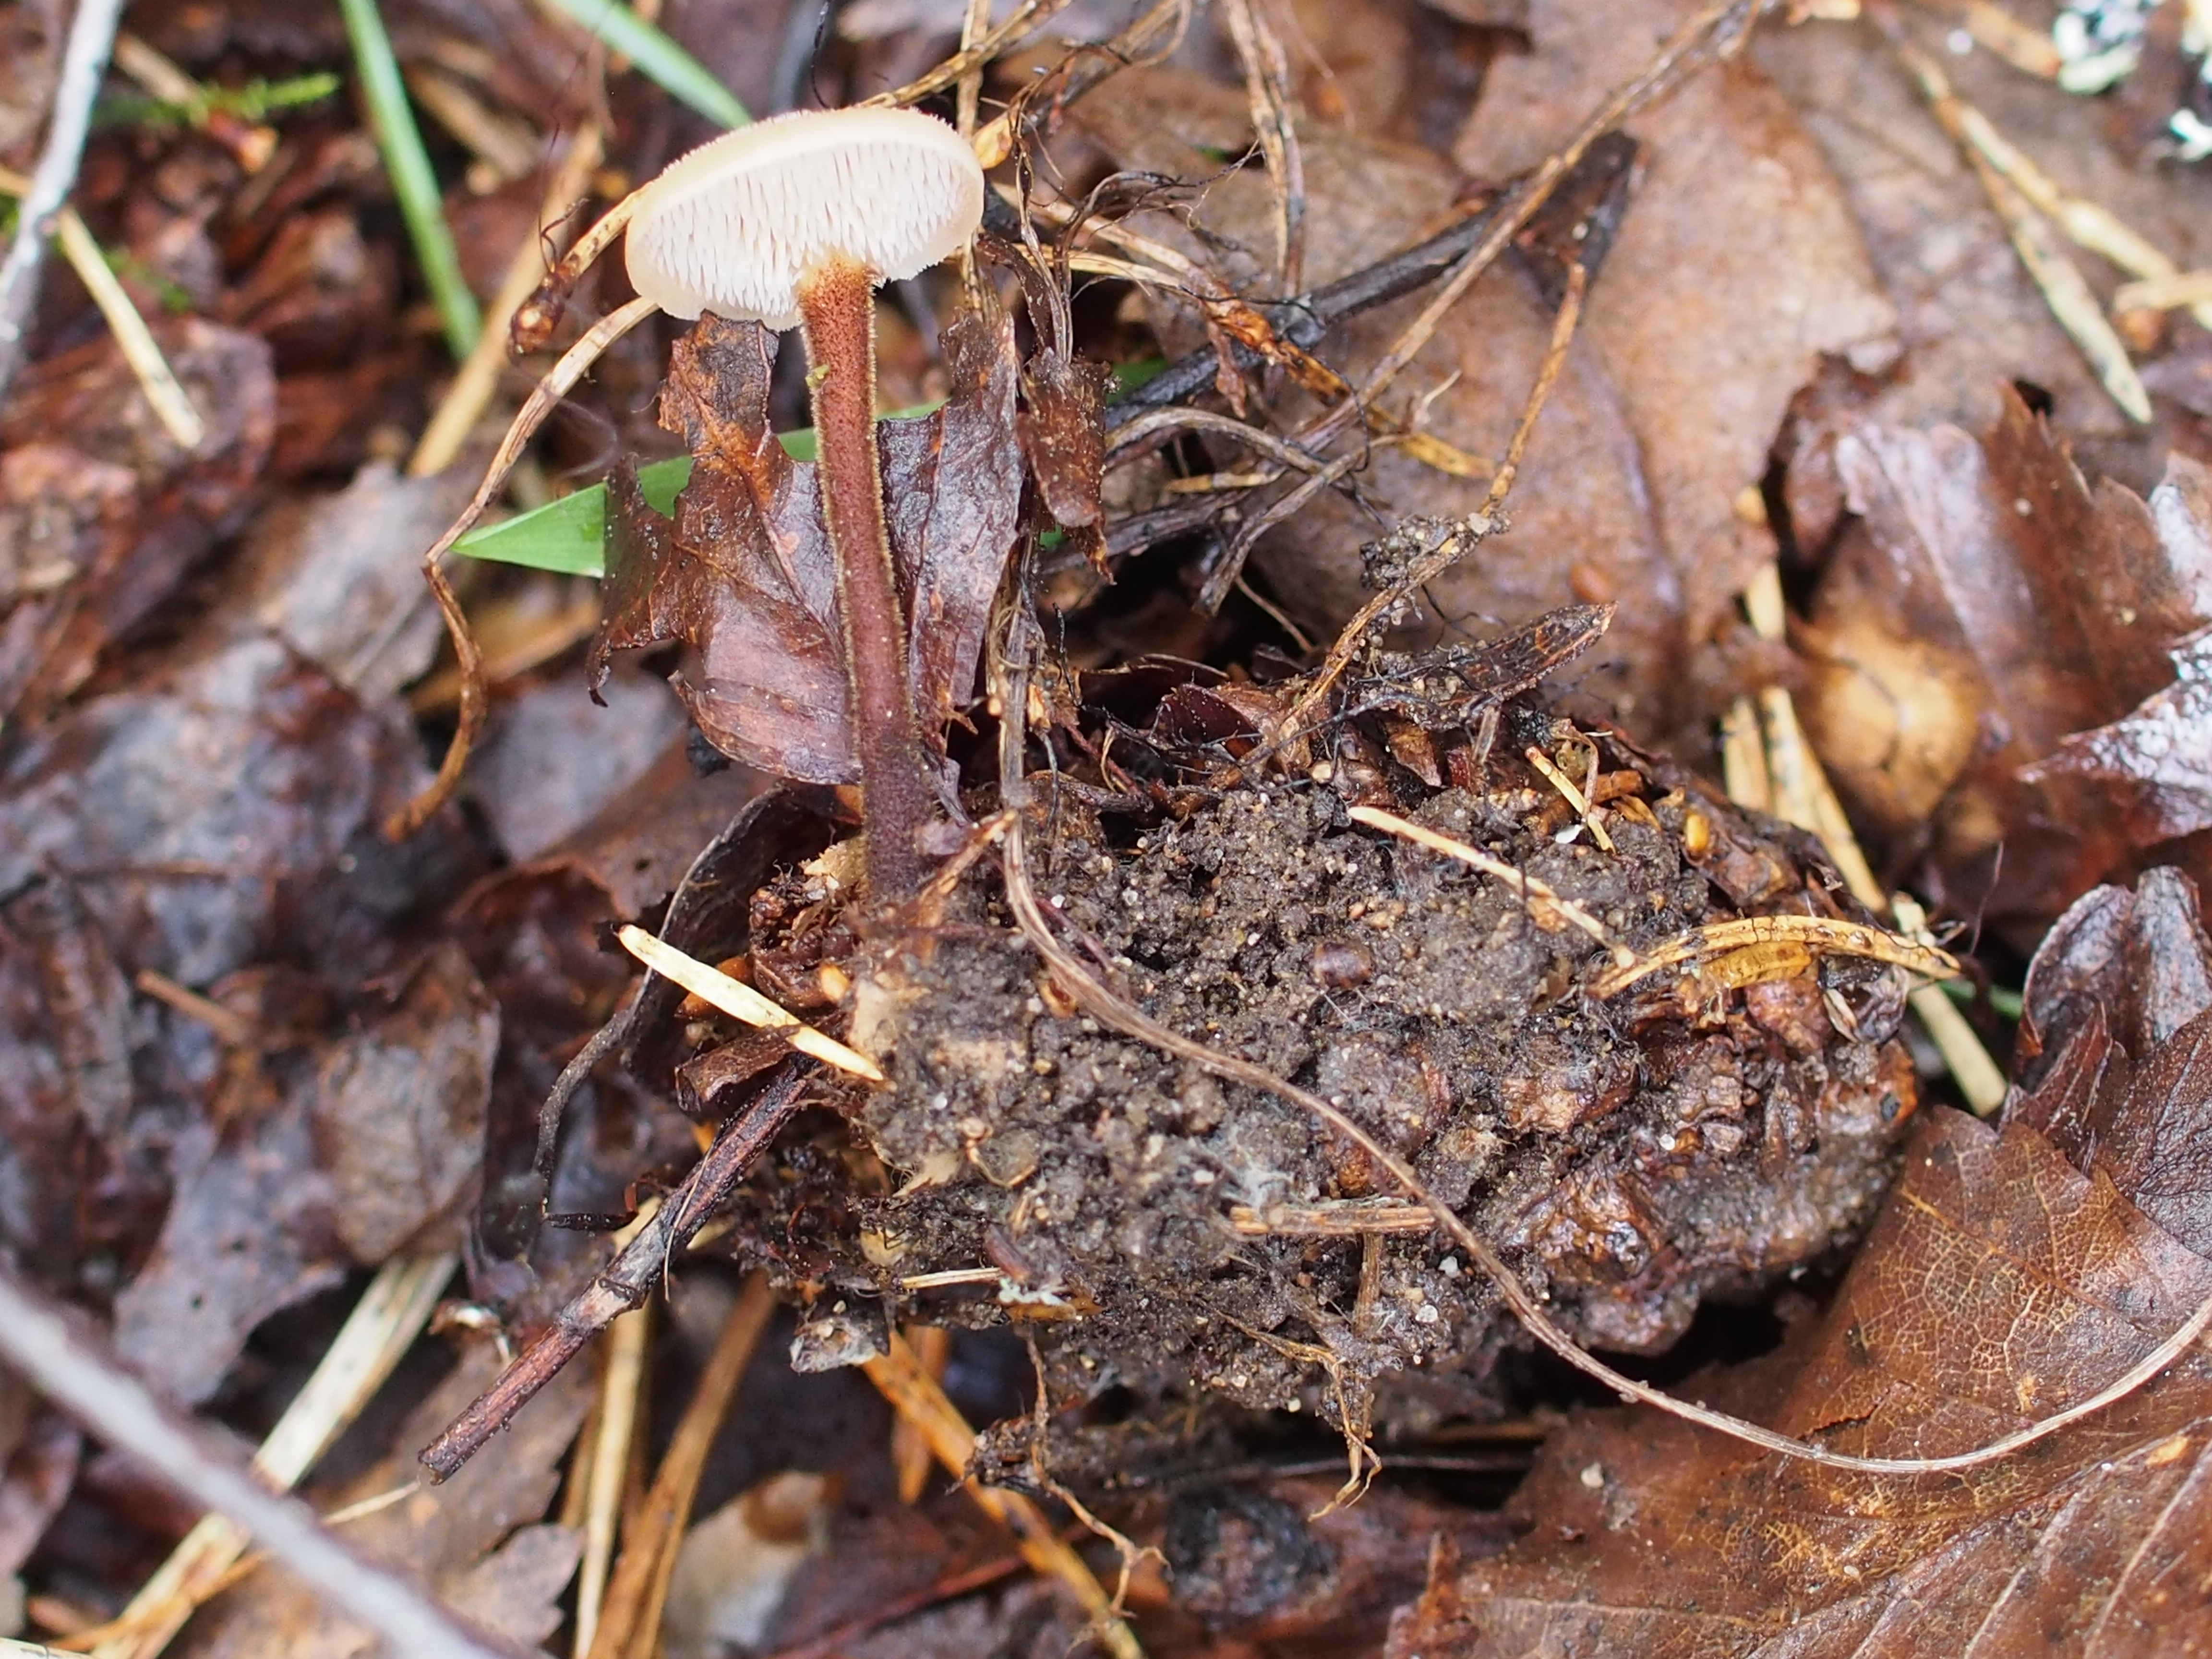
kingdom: Fungi
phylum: Basidiomycota
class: Agaricomycetes
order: Russulales
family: Auriscalpiaceae
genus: Auriscalpium
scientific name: Auriscalpium vulgare
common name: Earpick fungus
